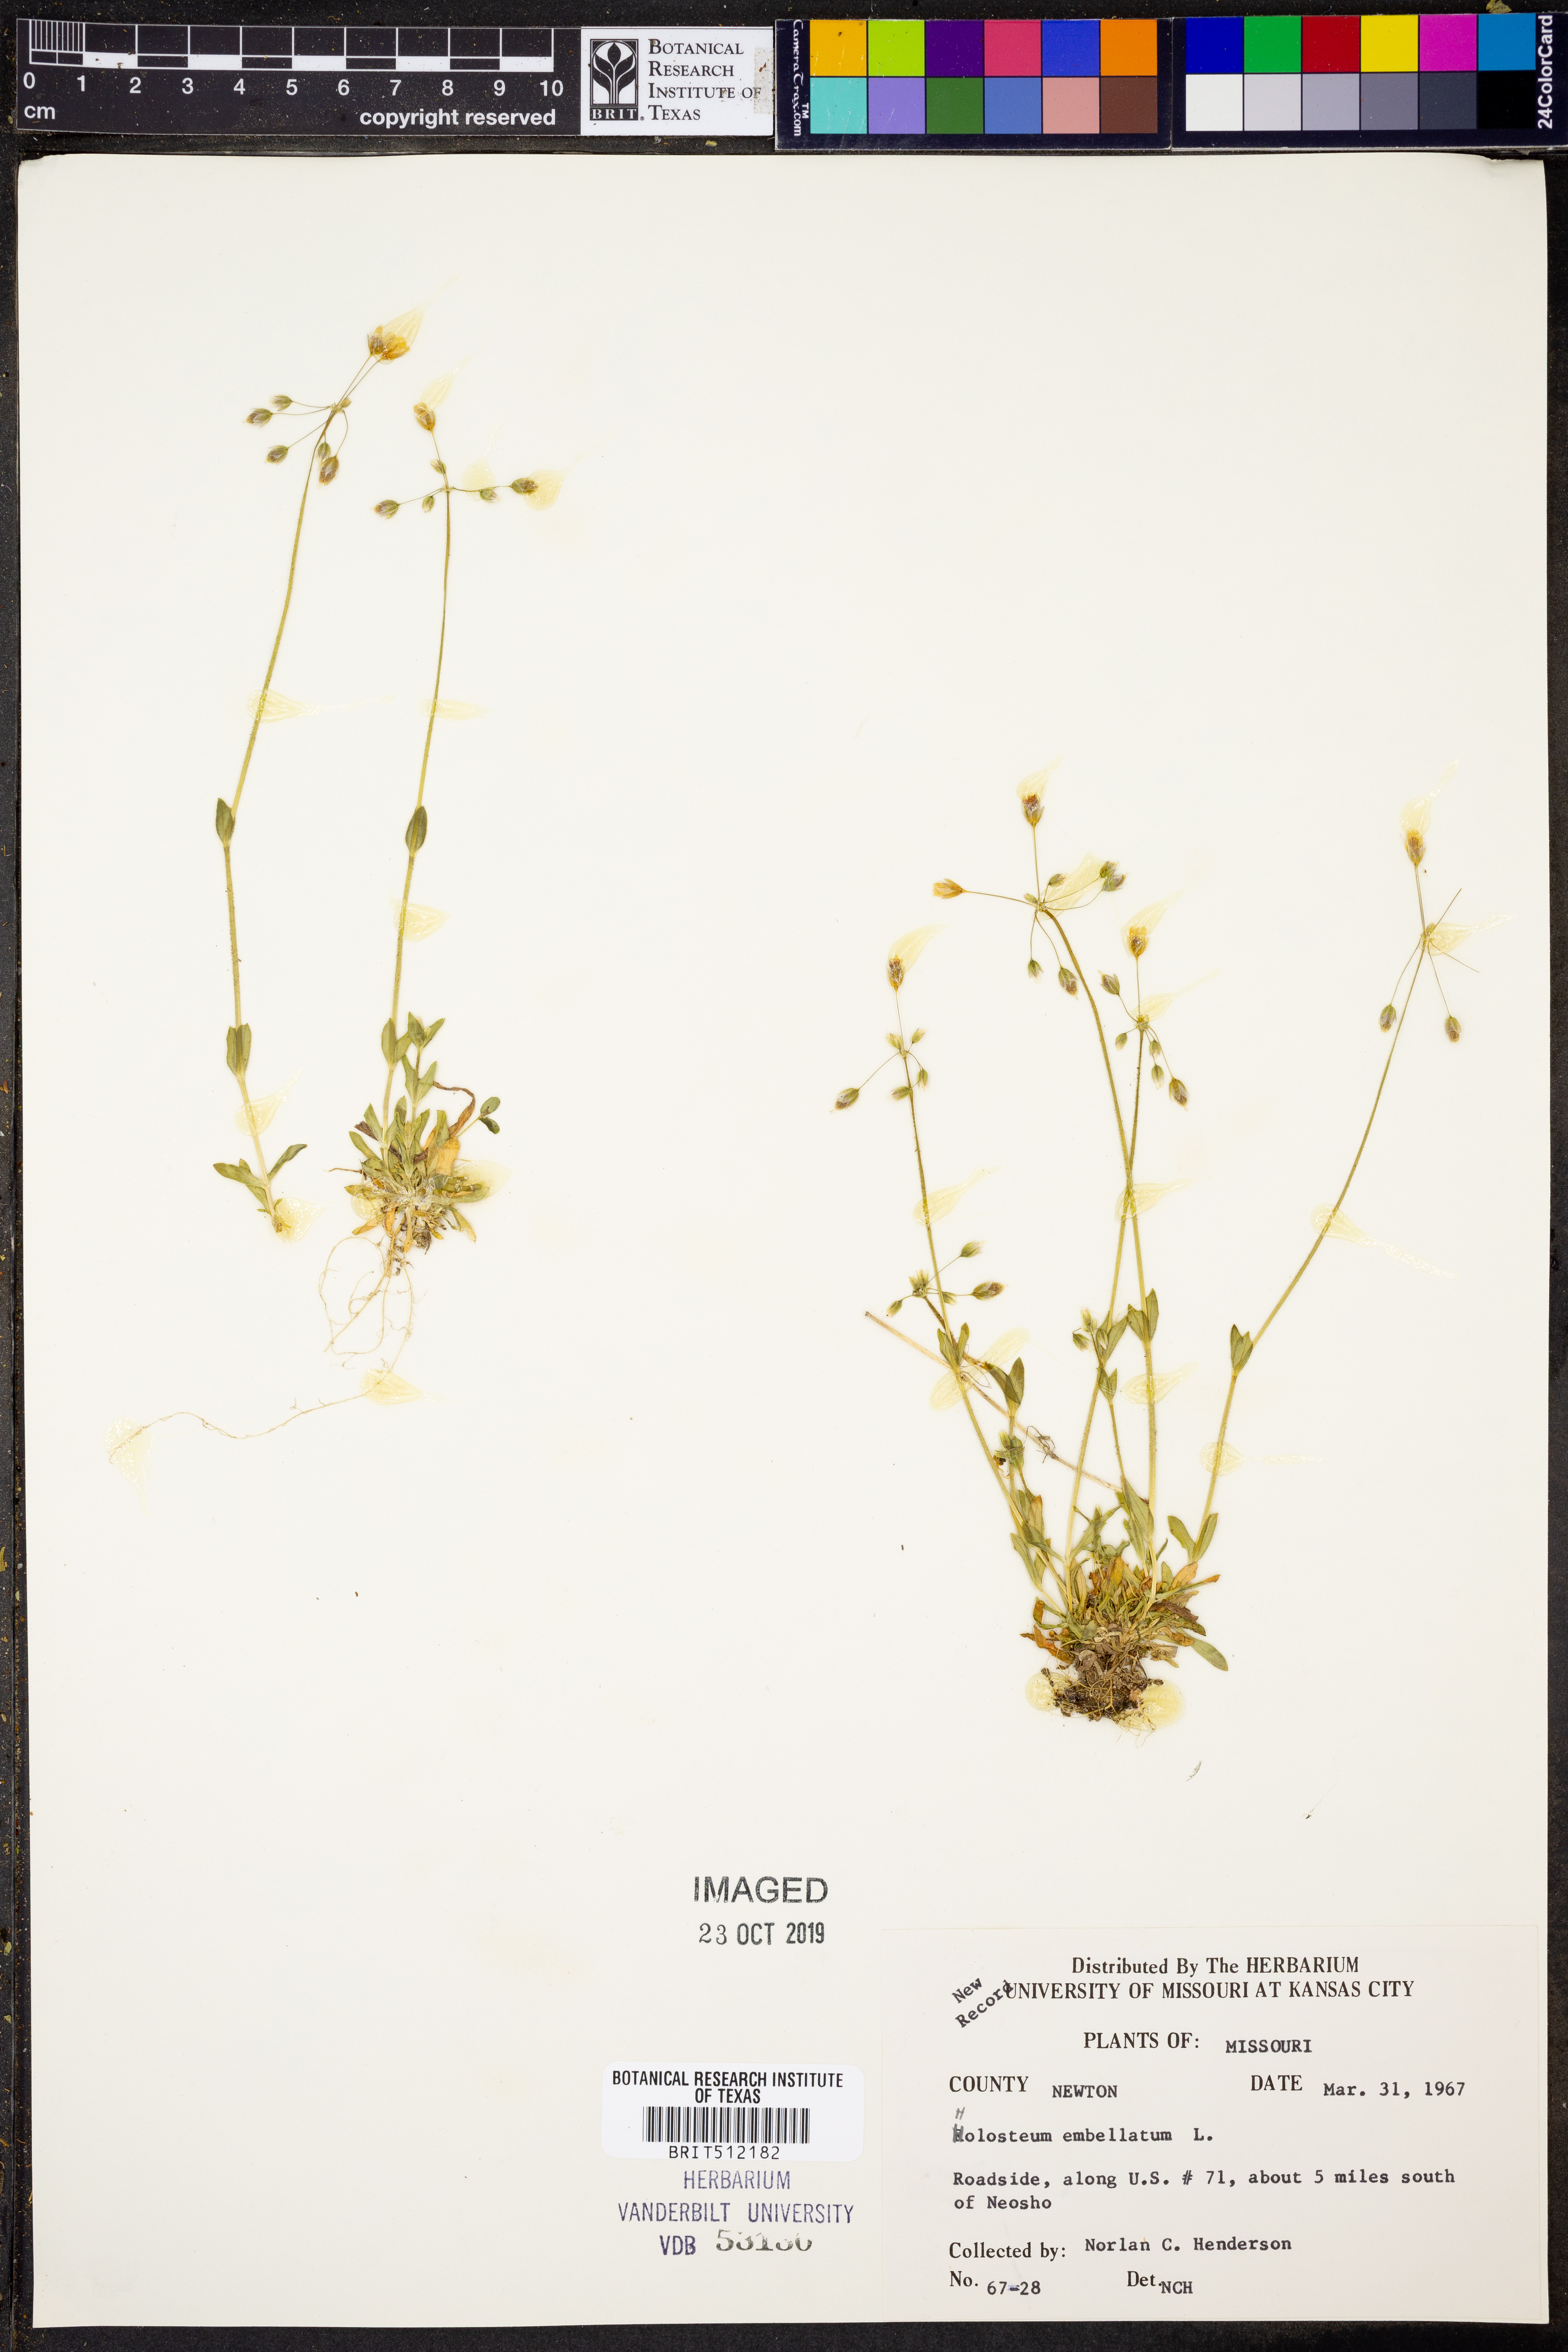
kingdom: Plantae
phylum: Tracheophyta
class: Magnoliopsida
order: Caryophyllales
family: Caryophyllaceae
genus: Holosteum
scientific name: Holosteum umbellatum
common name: Jagged chickweed
